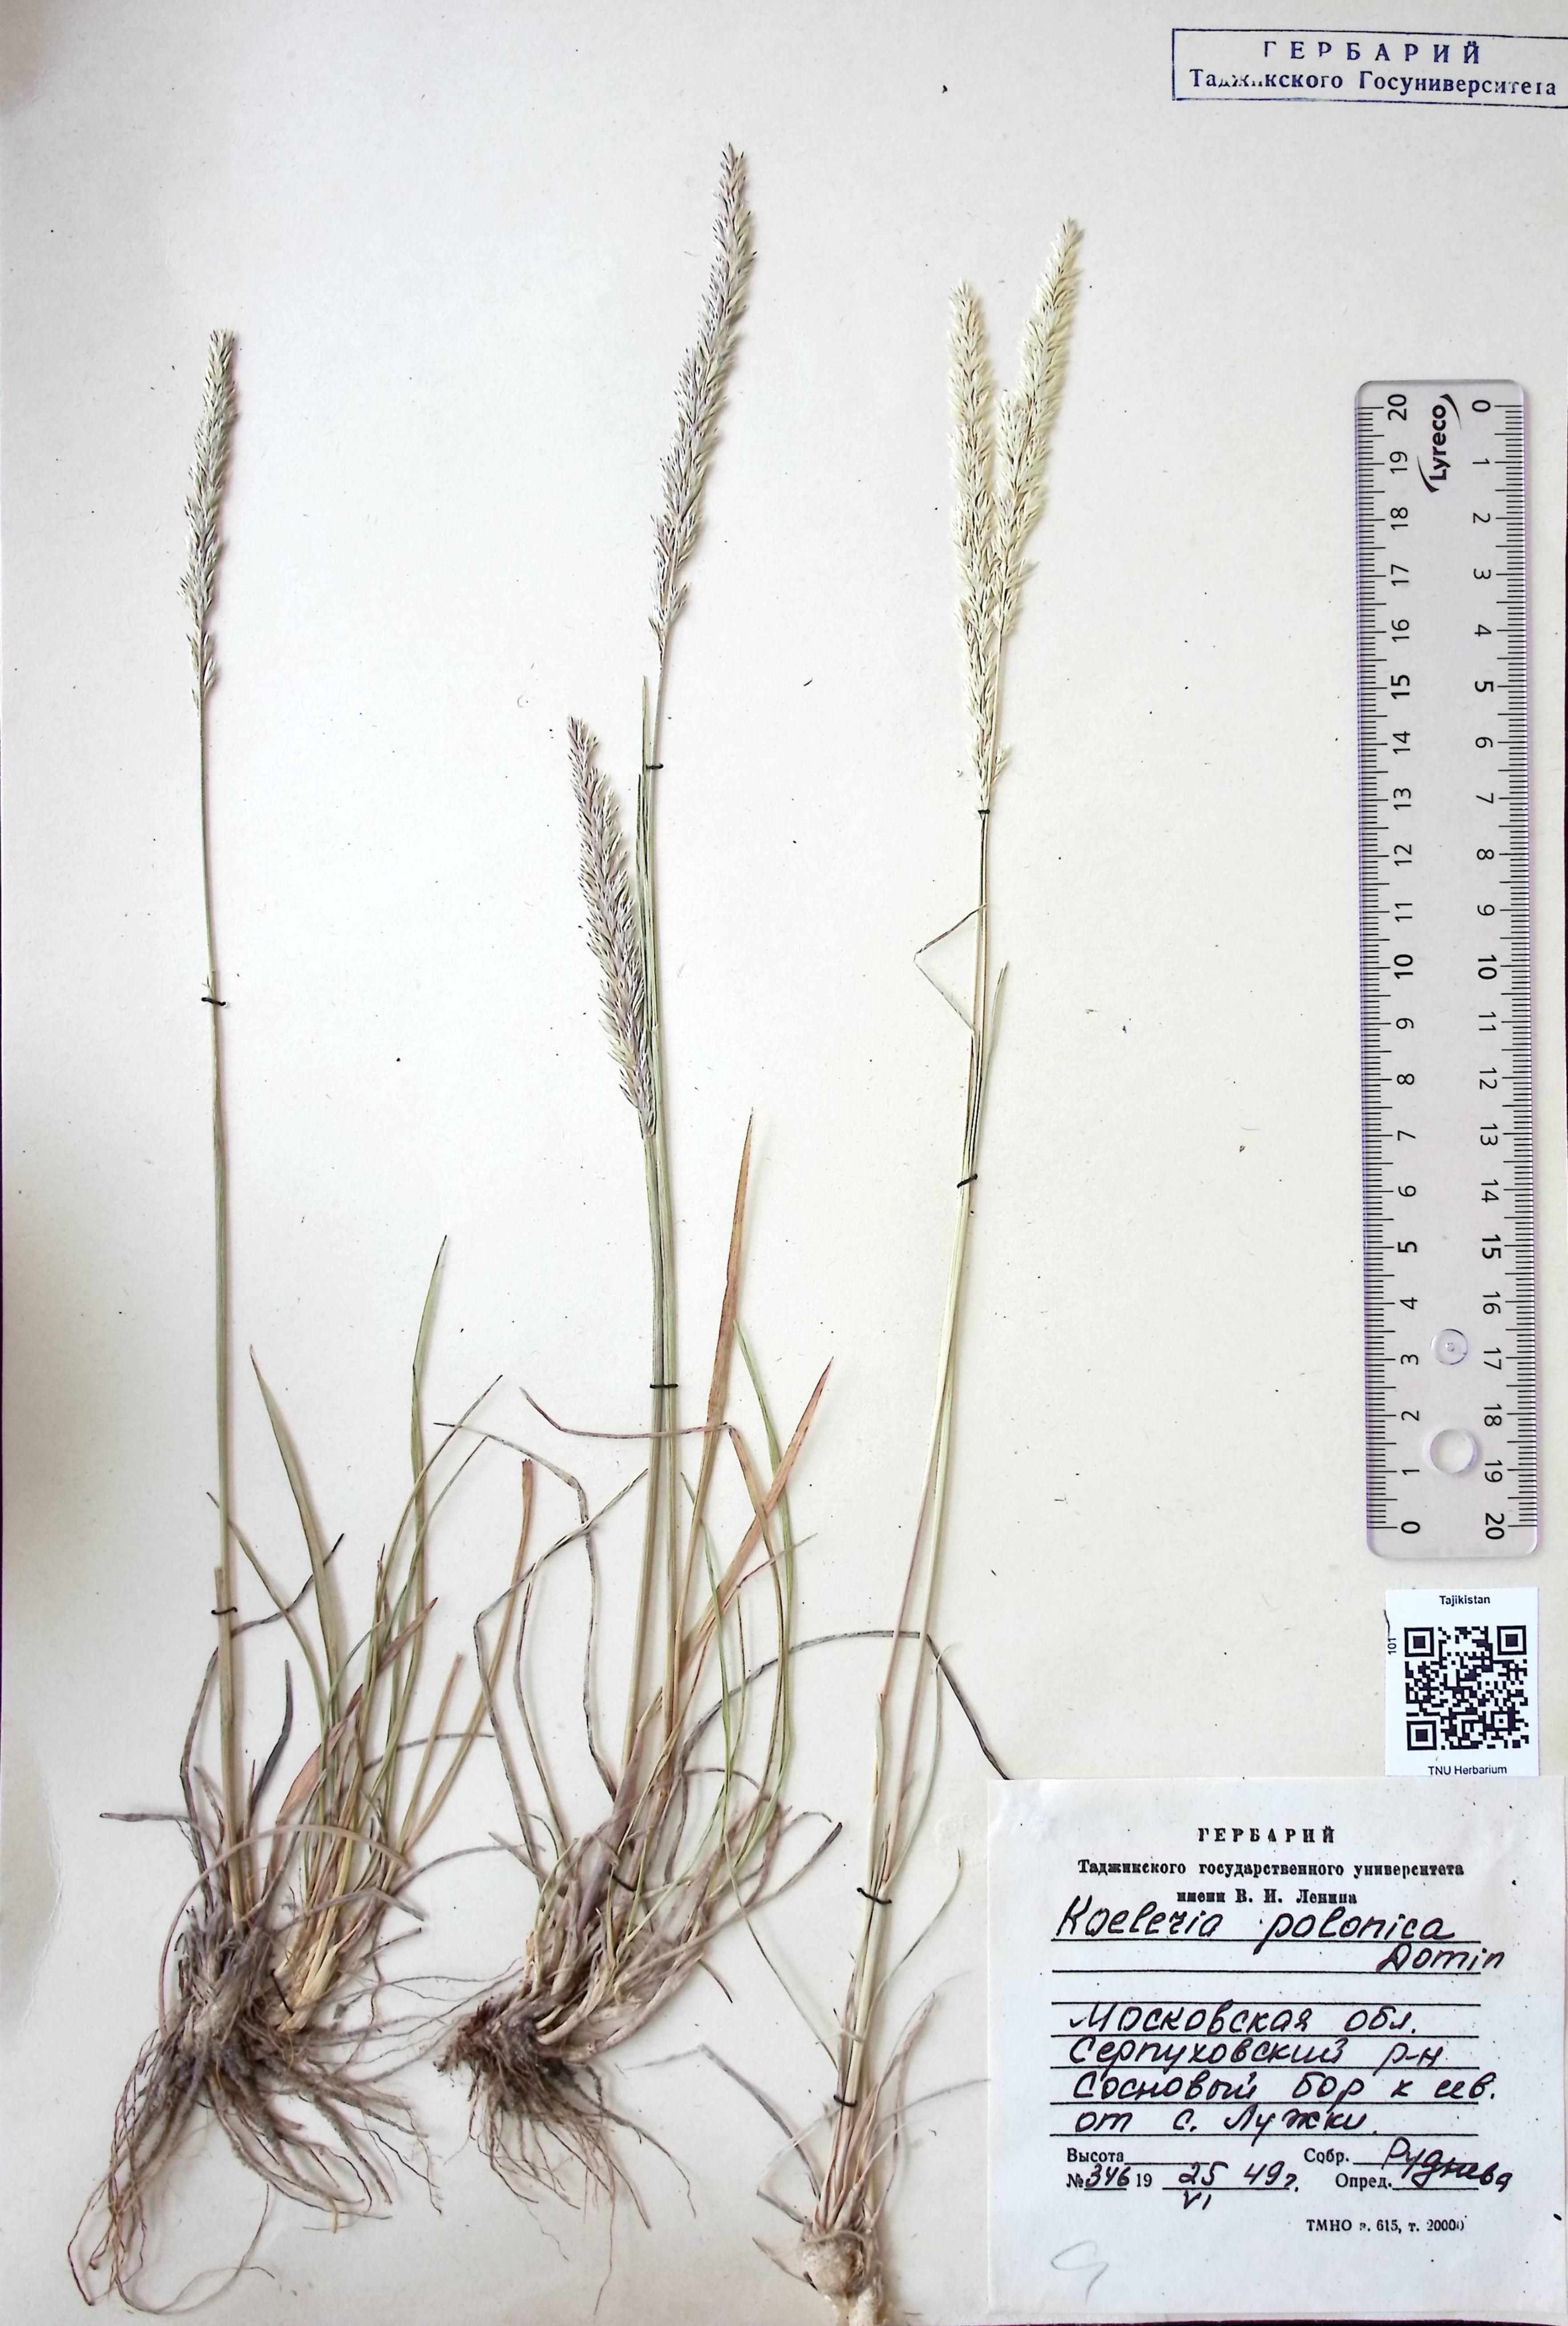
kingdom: Plantae
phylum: Tracheophyta
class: Liliopsida
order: Poales
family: Poaceae
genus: Koeleria
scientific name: Koeleria pyramidata
